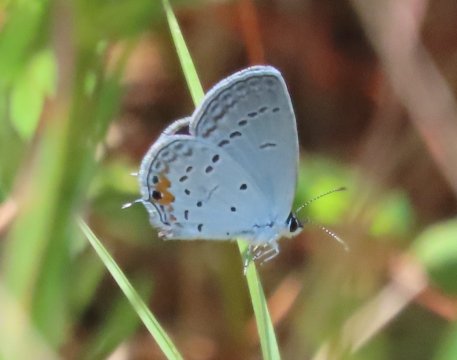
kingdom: Animalia
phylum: Arthropoda
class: Insecta
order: Lepidoptera
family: Lycaenidae
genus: Elkalyce
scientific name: Elkalyce comyntas
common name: Eastern Tailed-Blue
